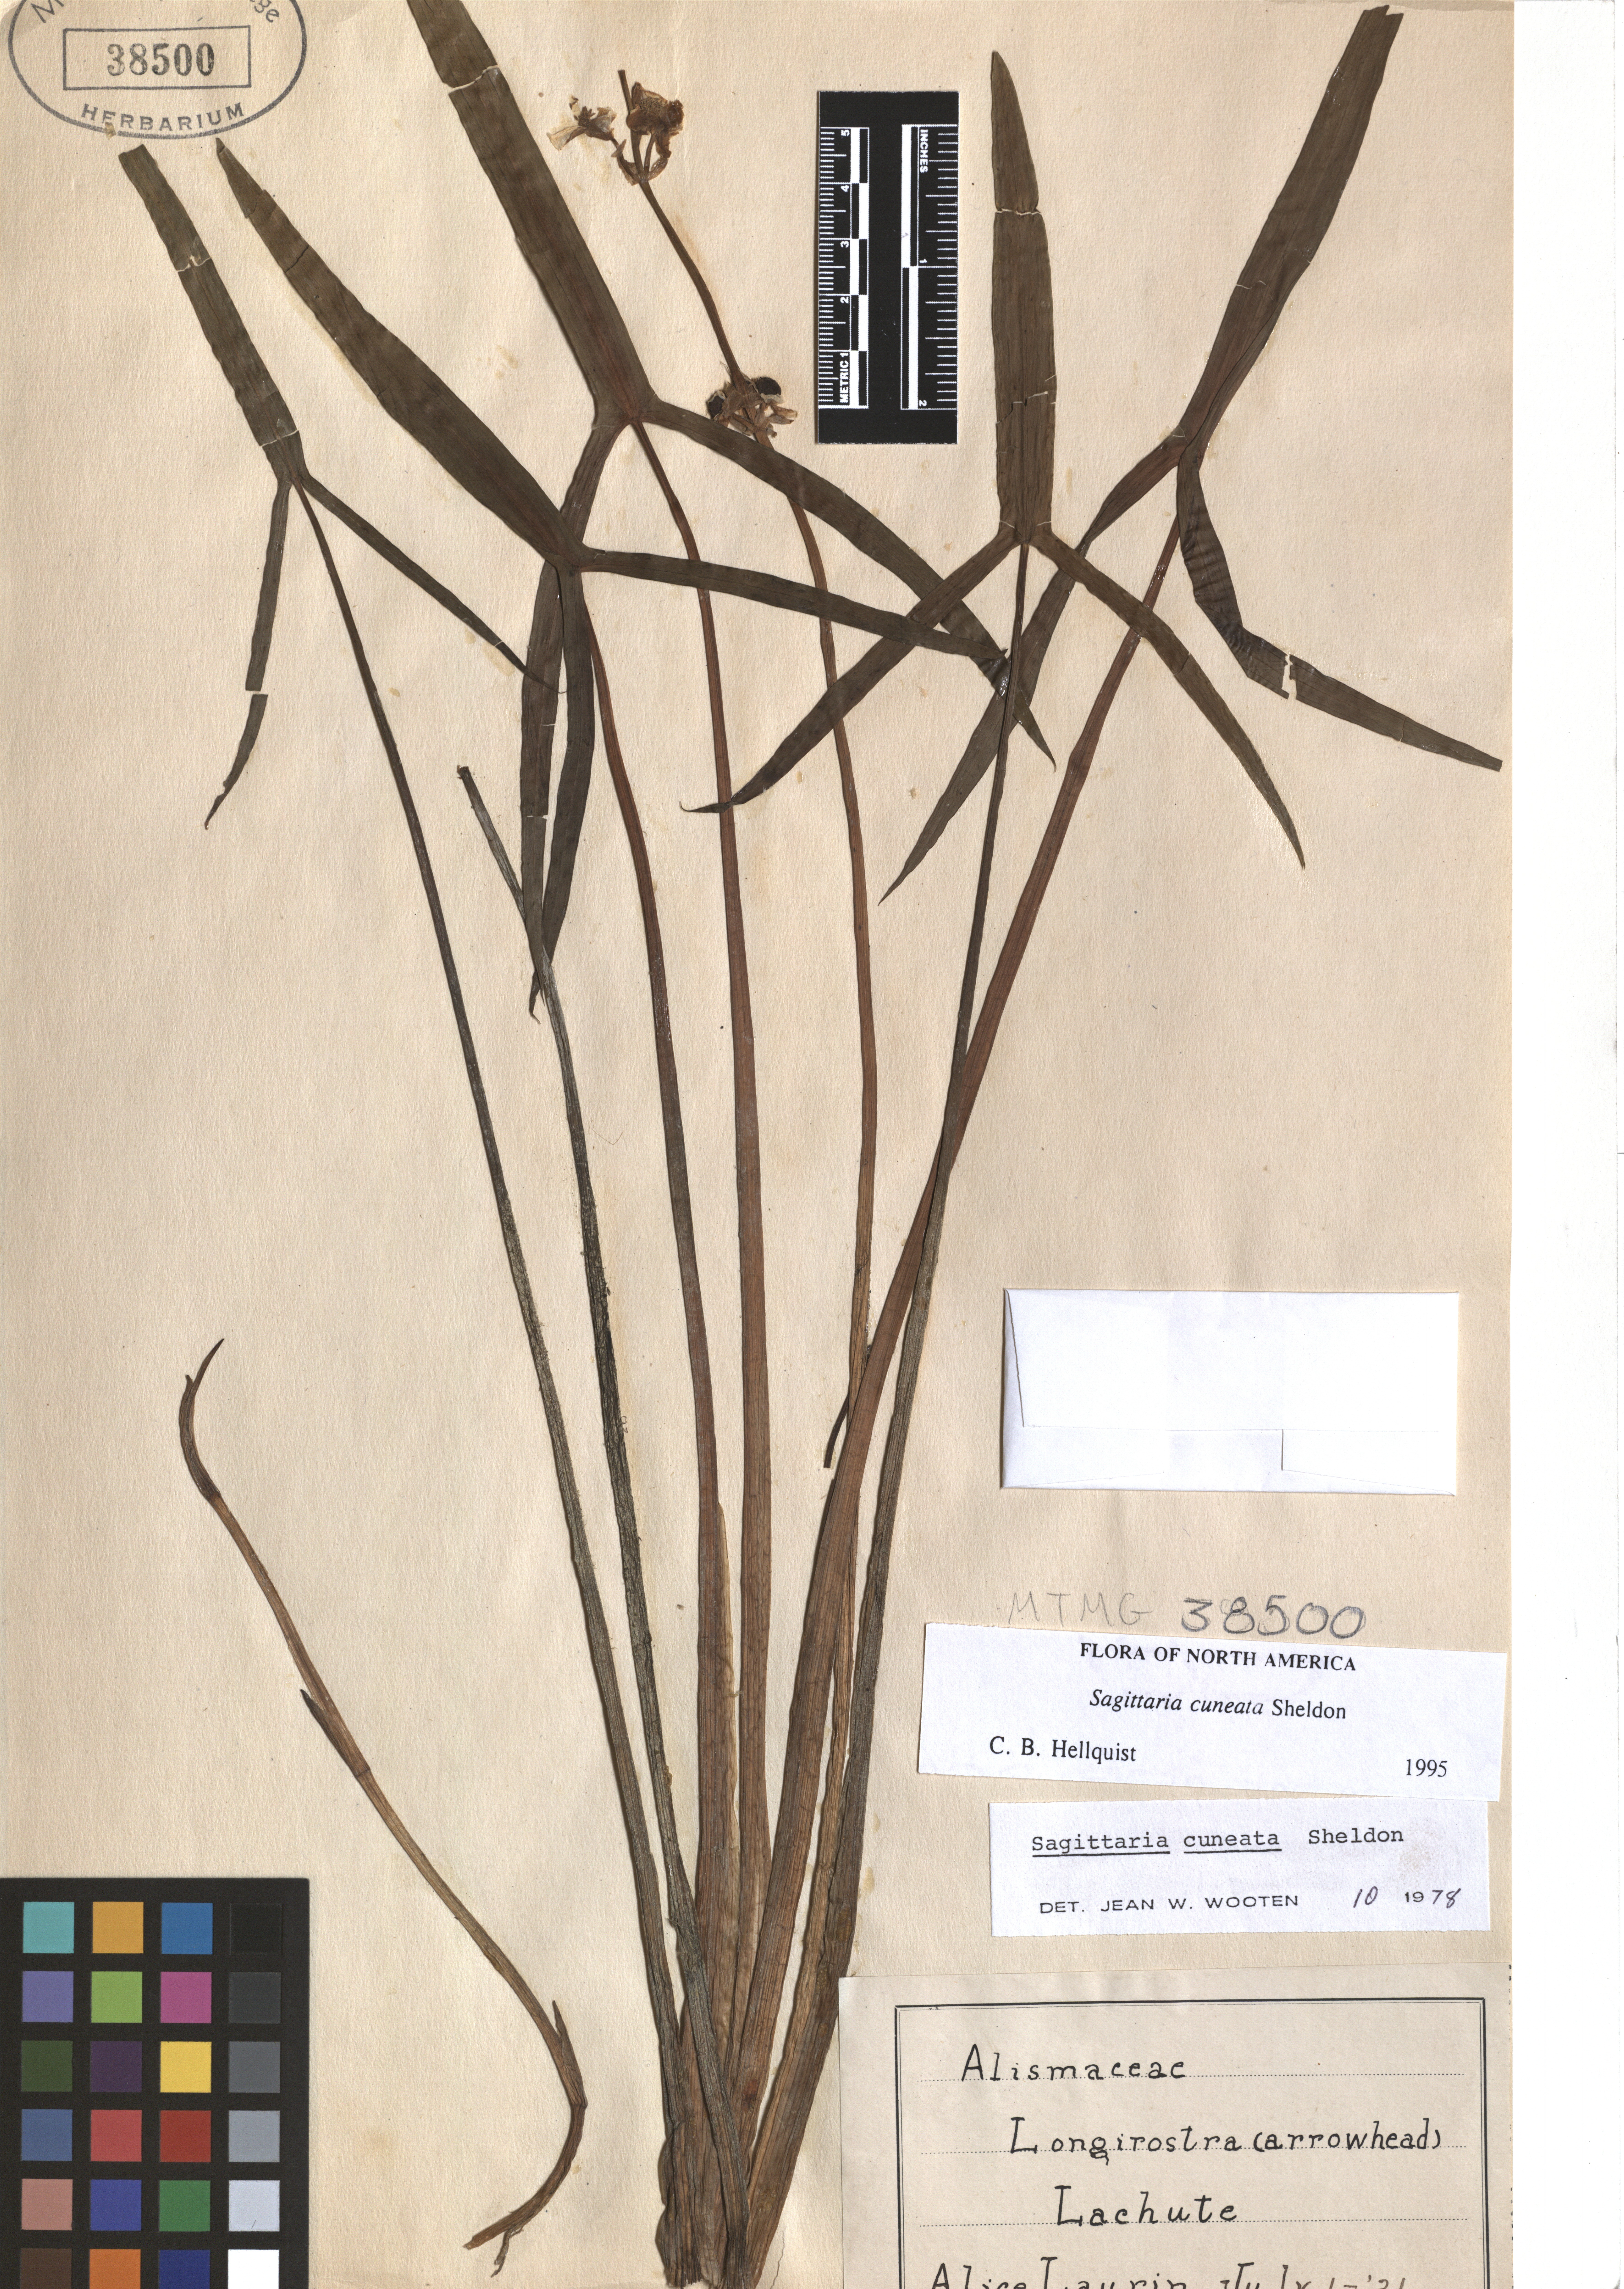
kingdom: Plantae
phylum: Tracheophyta
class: Liliopsida
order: Alismatales
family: Alismataceae
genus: Sagittaria
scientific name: Sagittaria cuneata
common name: Northern arrowhead
